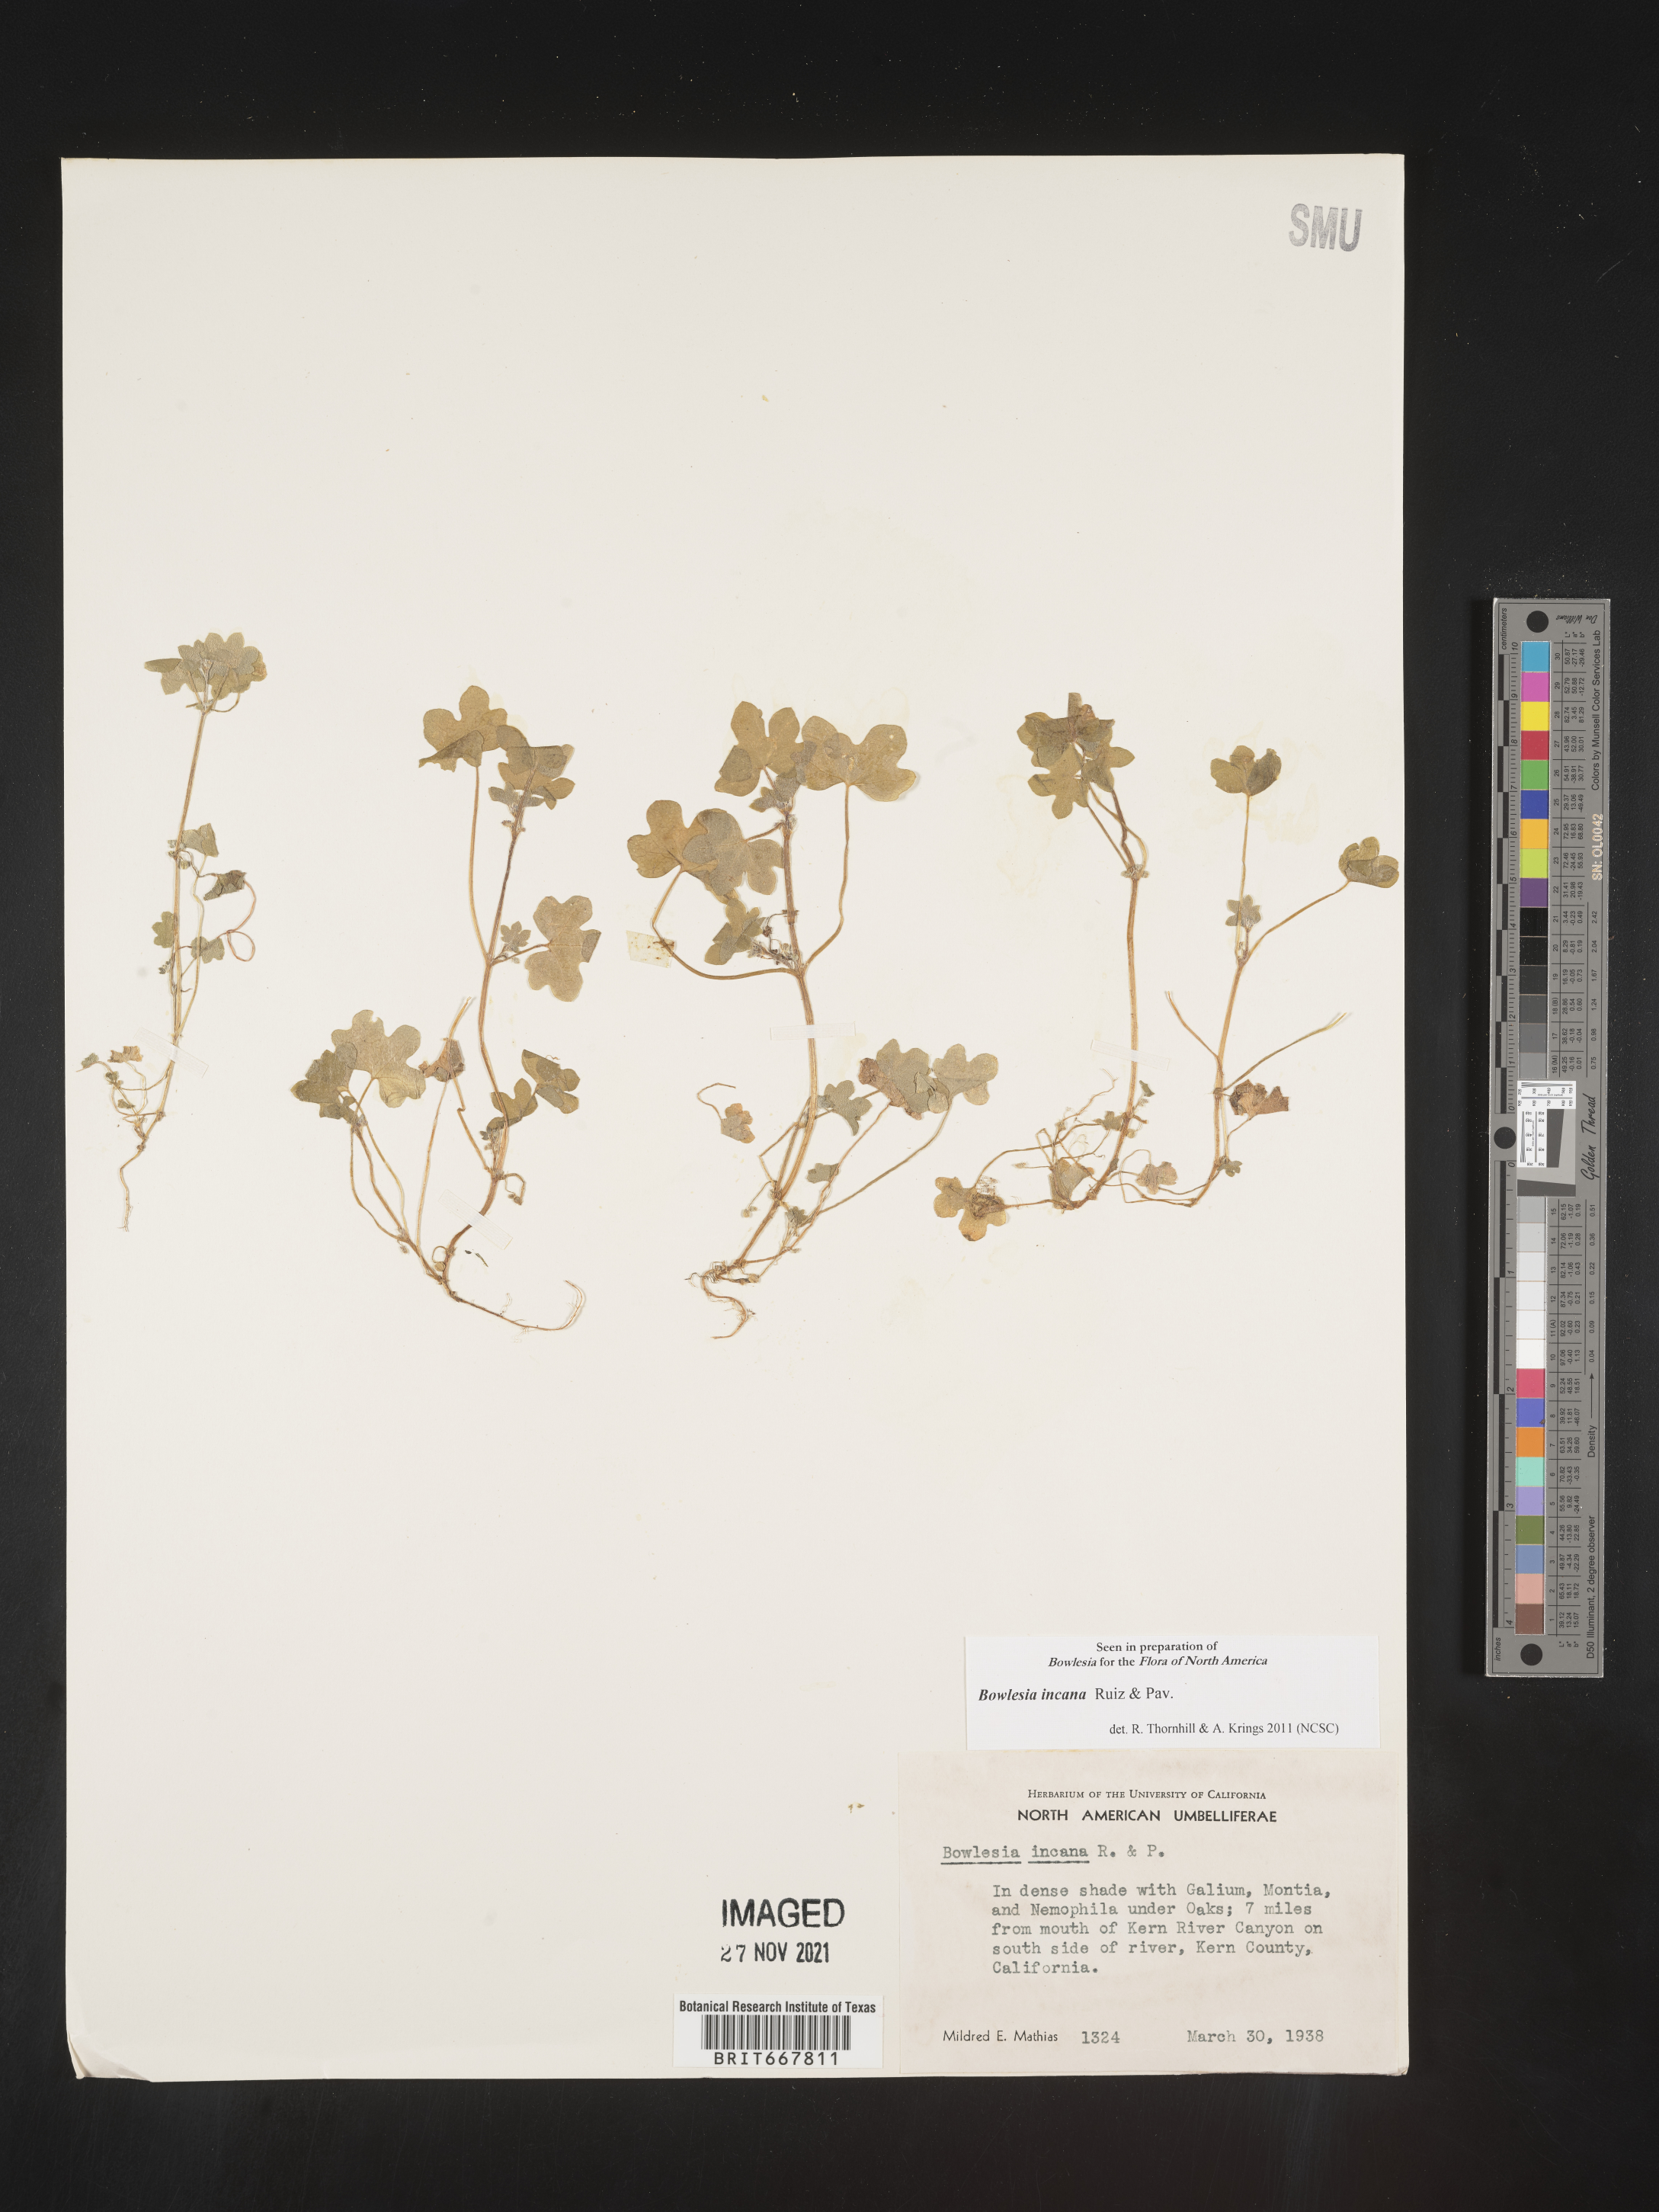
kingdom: Plantae
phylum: Tracheophyta
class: Magnoliopsida
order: Apiales
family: Apiaceae
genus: Bowlesia
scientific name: Bowlesia
